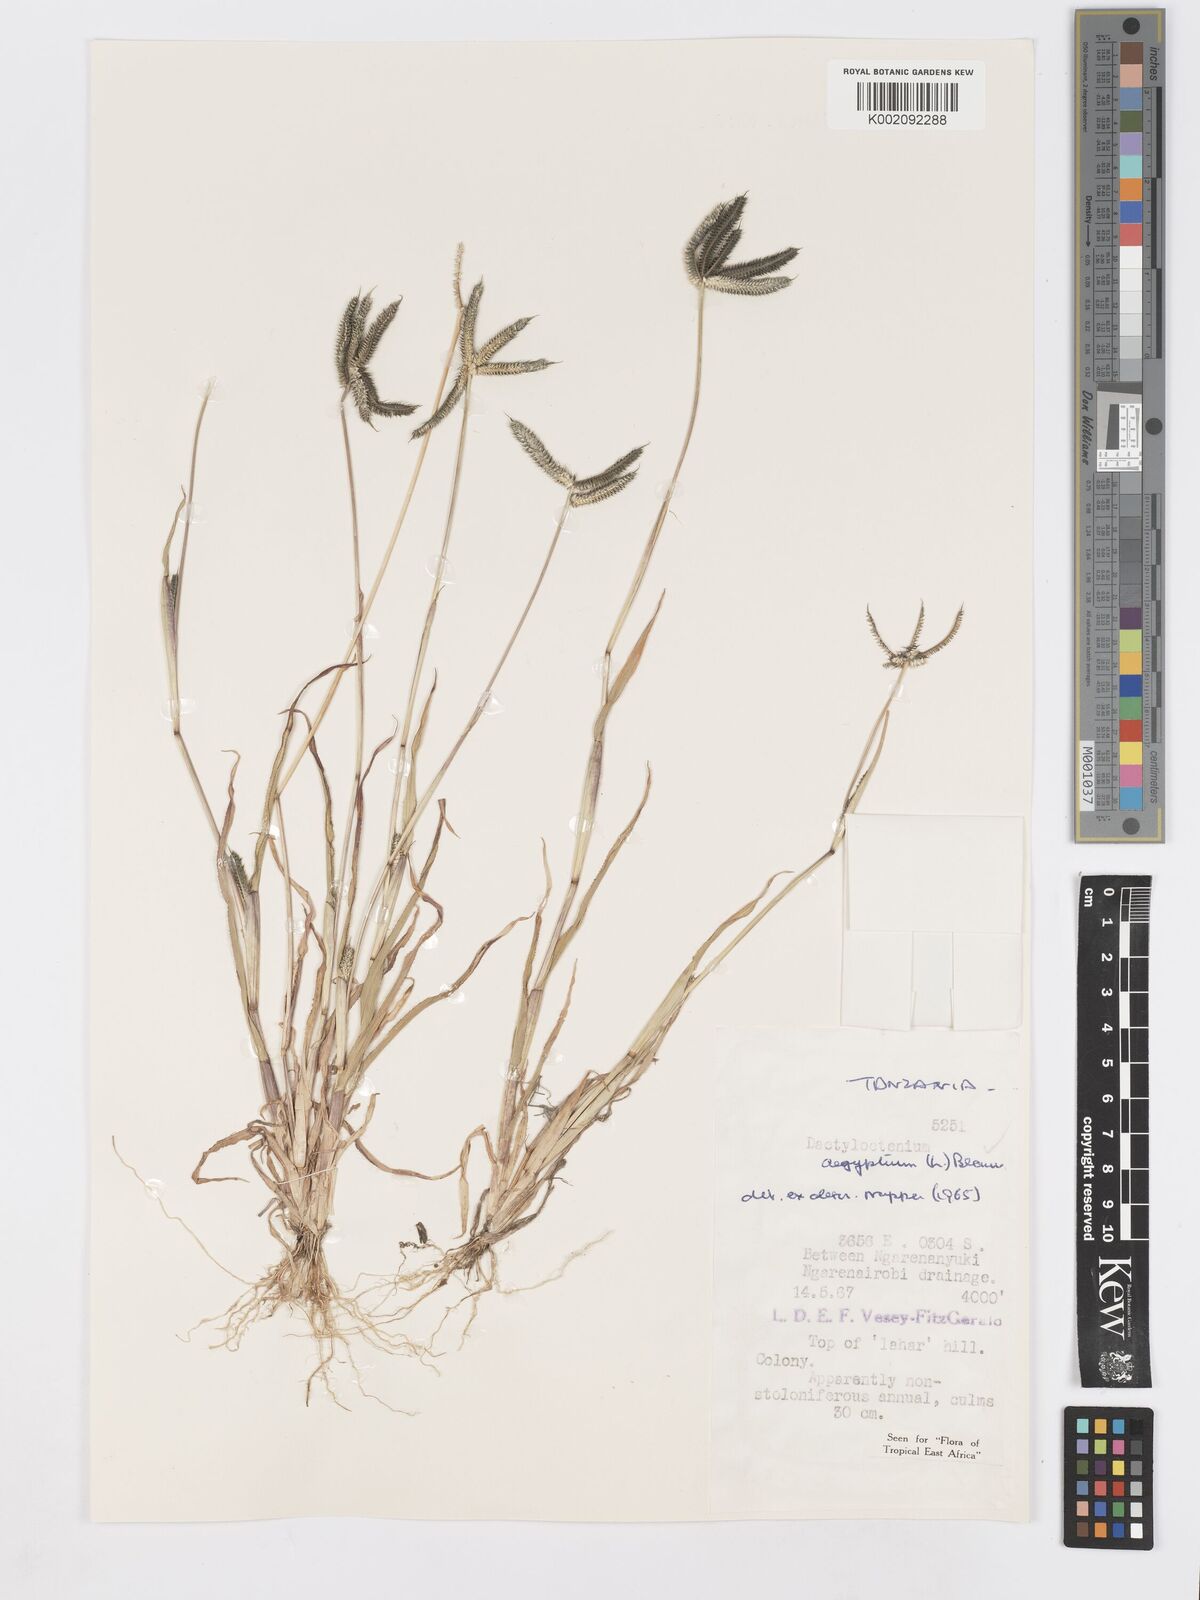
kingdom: Plantae
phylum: Tracheophyta
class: Liliopsida
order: Poales
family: Poaceae
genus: Dactyloctenium
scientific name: Dactyloctenium aegyptium
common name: Egyptian grass
